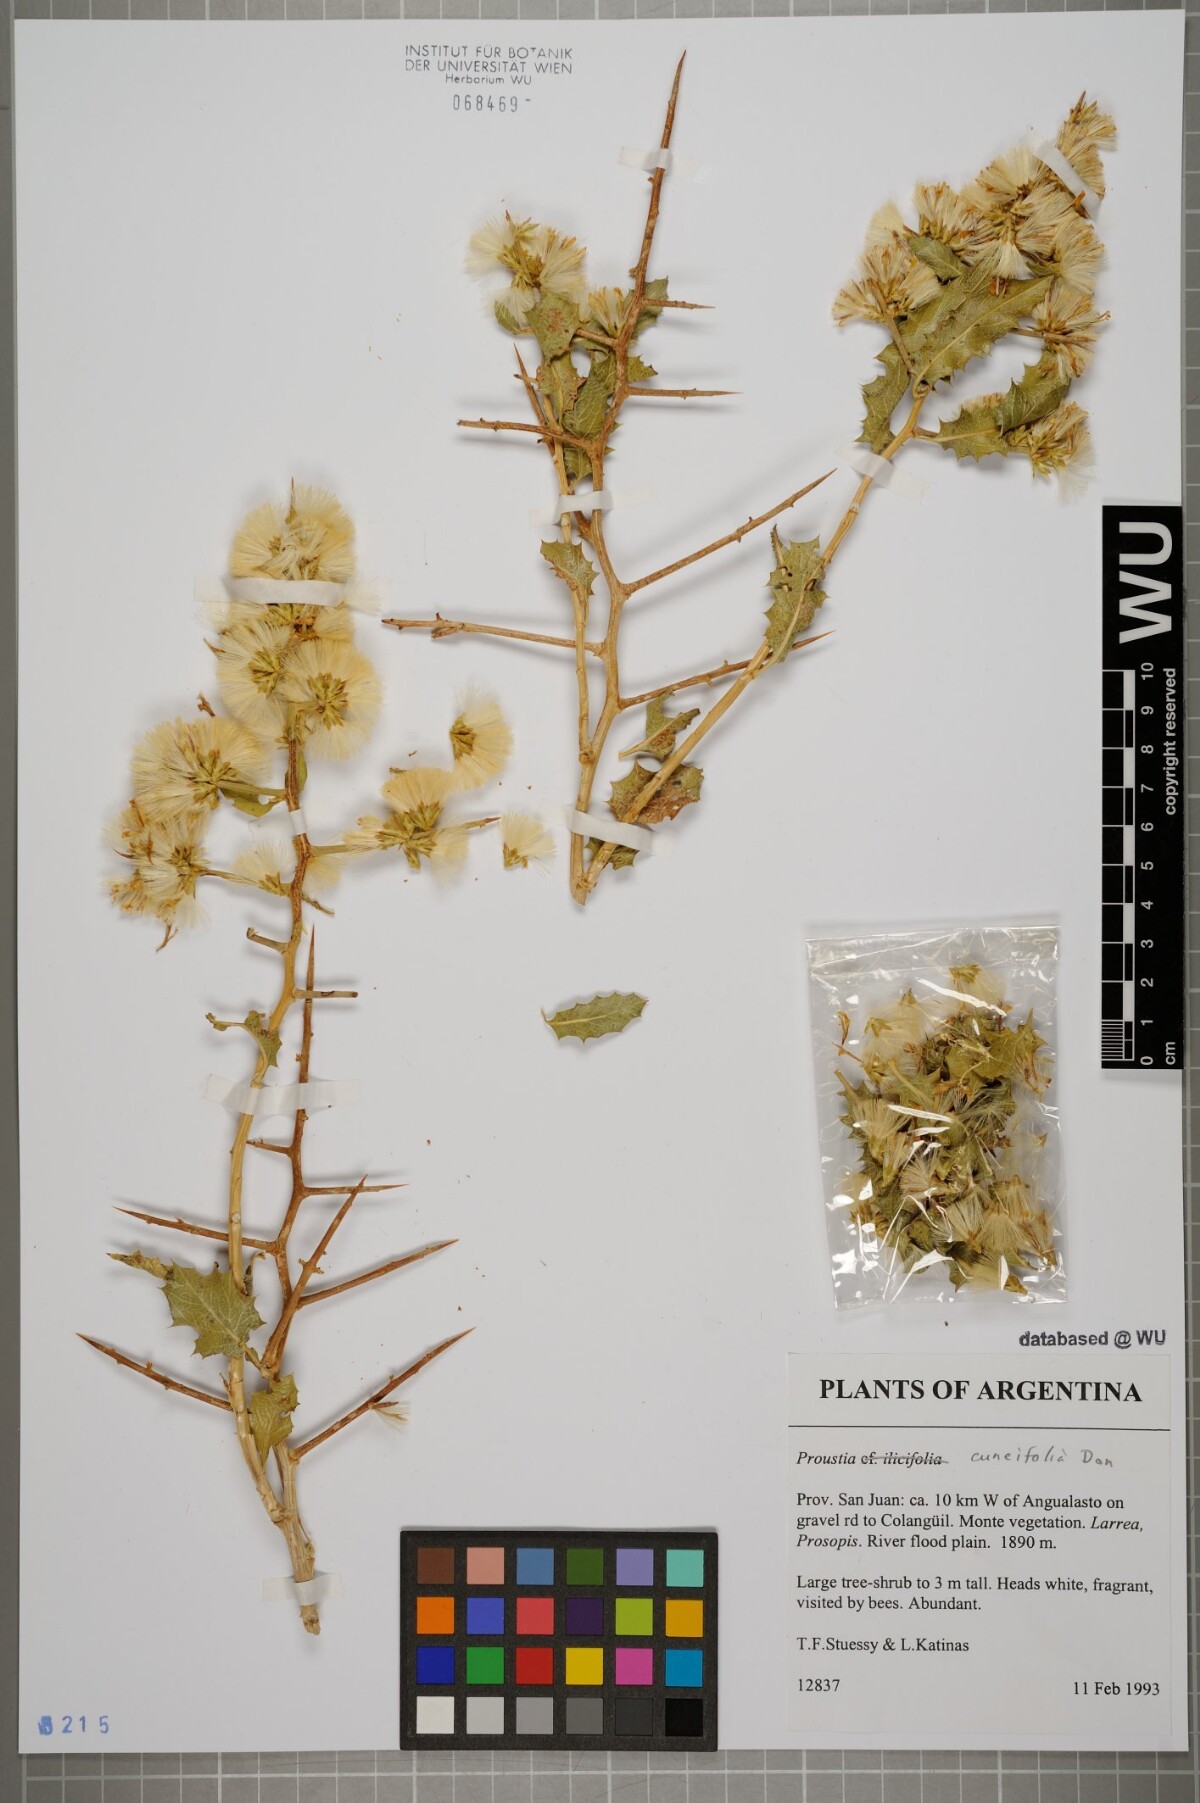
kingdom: Plantae
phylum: Tracheophyta
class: Magnoliopsida
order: Asterales
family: Asteraceae
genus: Proustia
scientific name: Proustia cuneifolia
